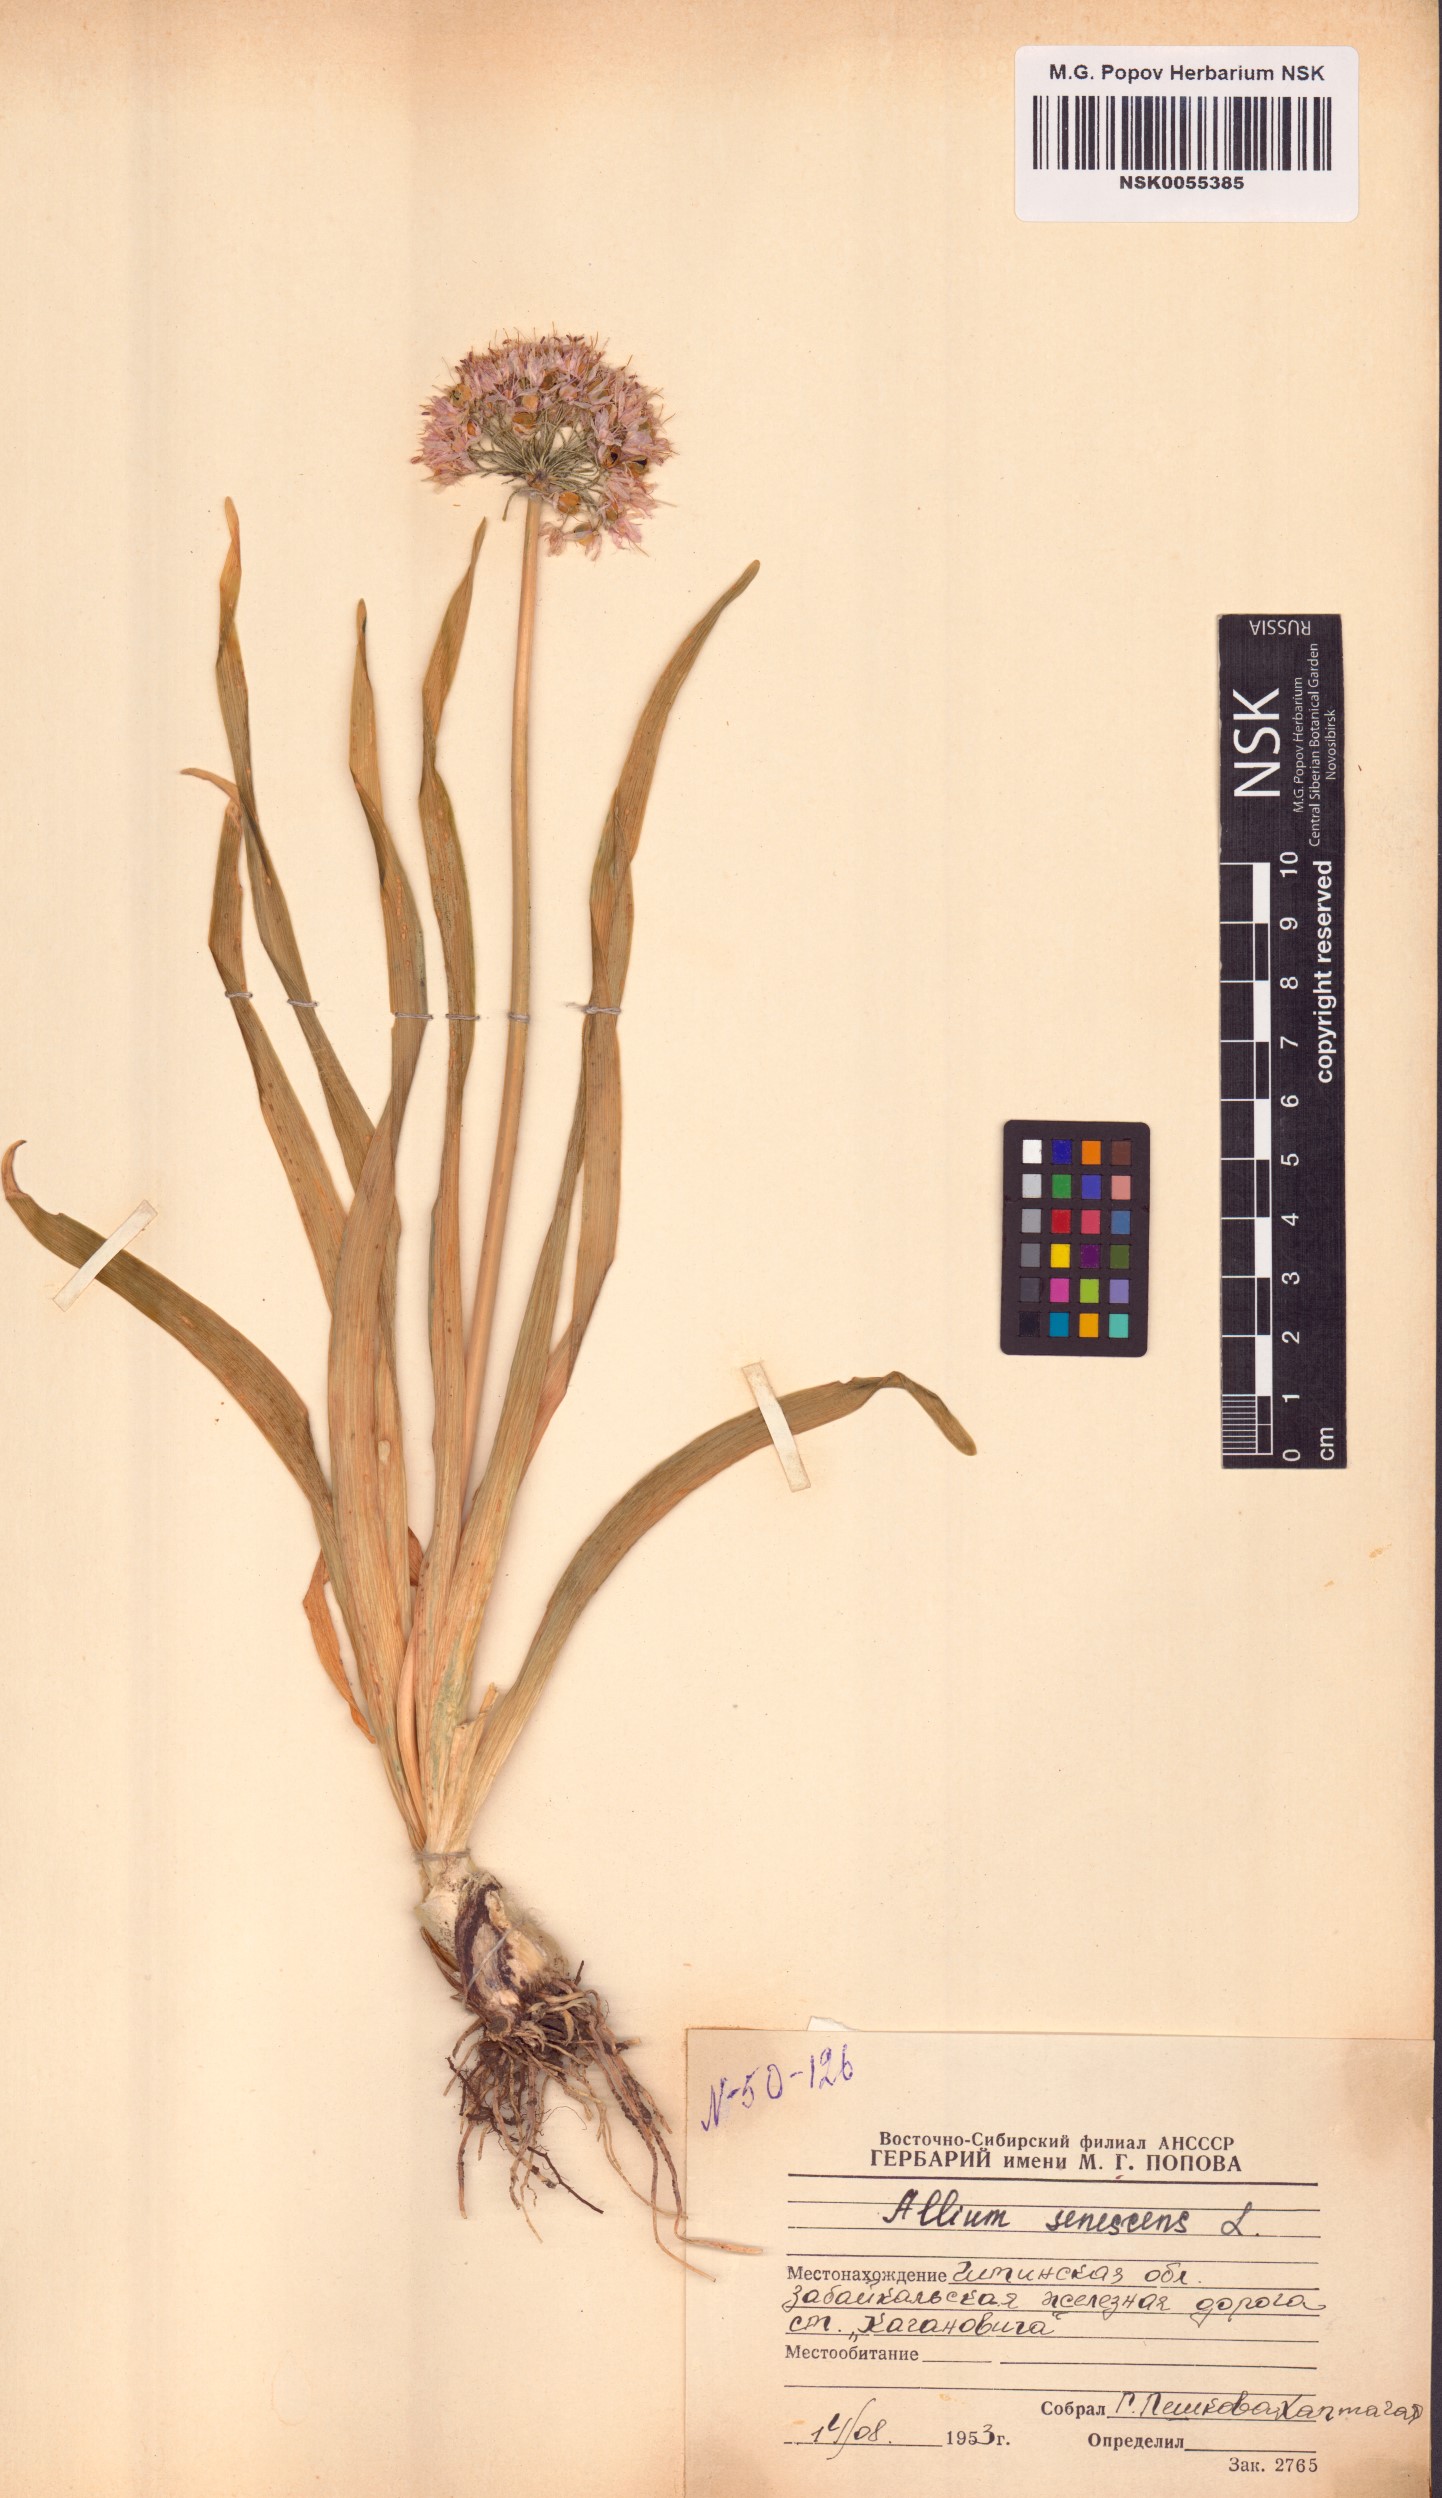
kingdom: Plantae
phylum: Tracheophyta
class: Liliopsida
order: Asparagales
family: Amaryllidaceae
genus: Allium
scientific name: Allium senescens
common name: German garlic
